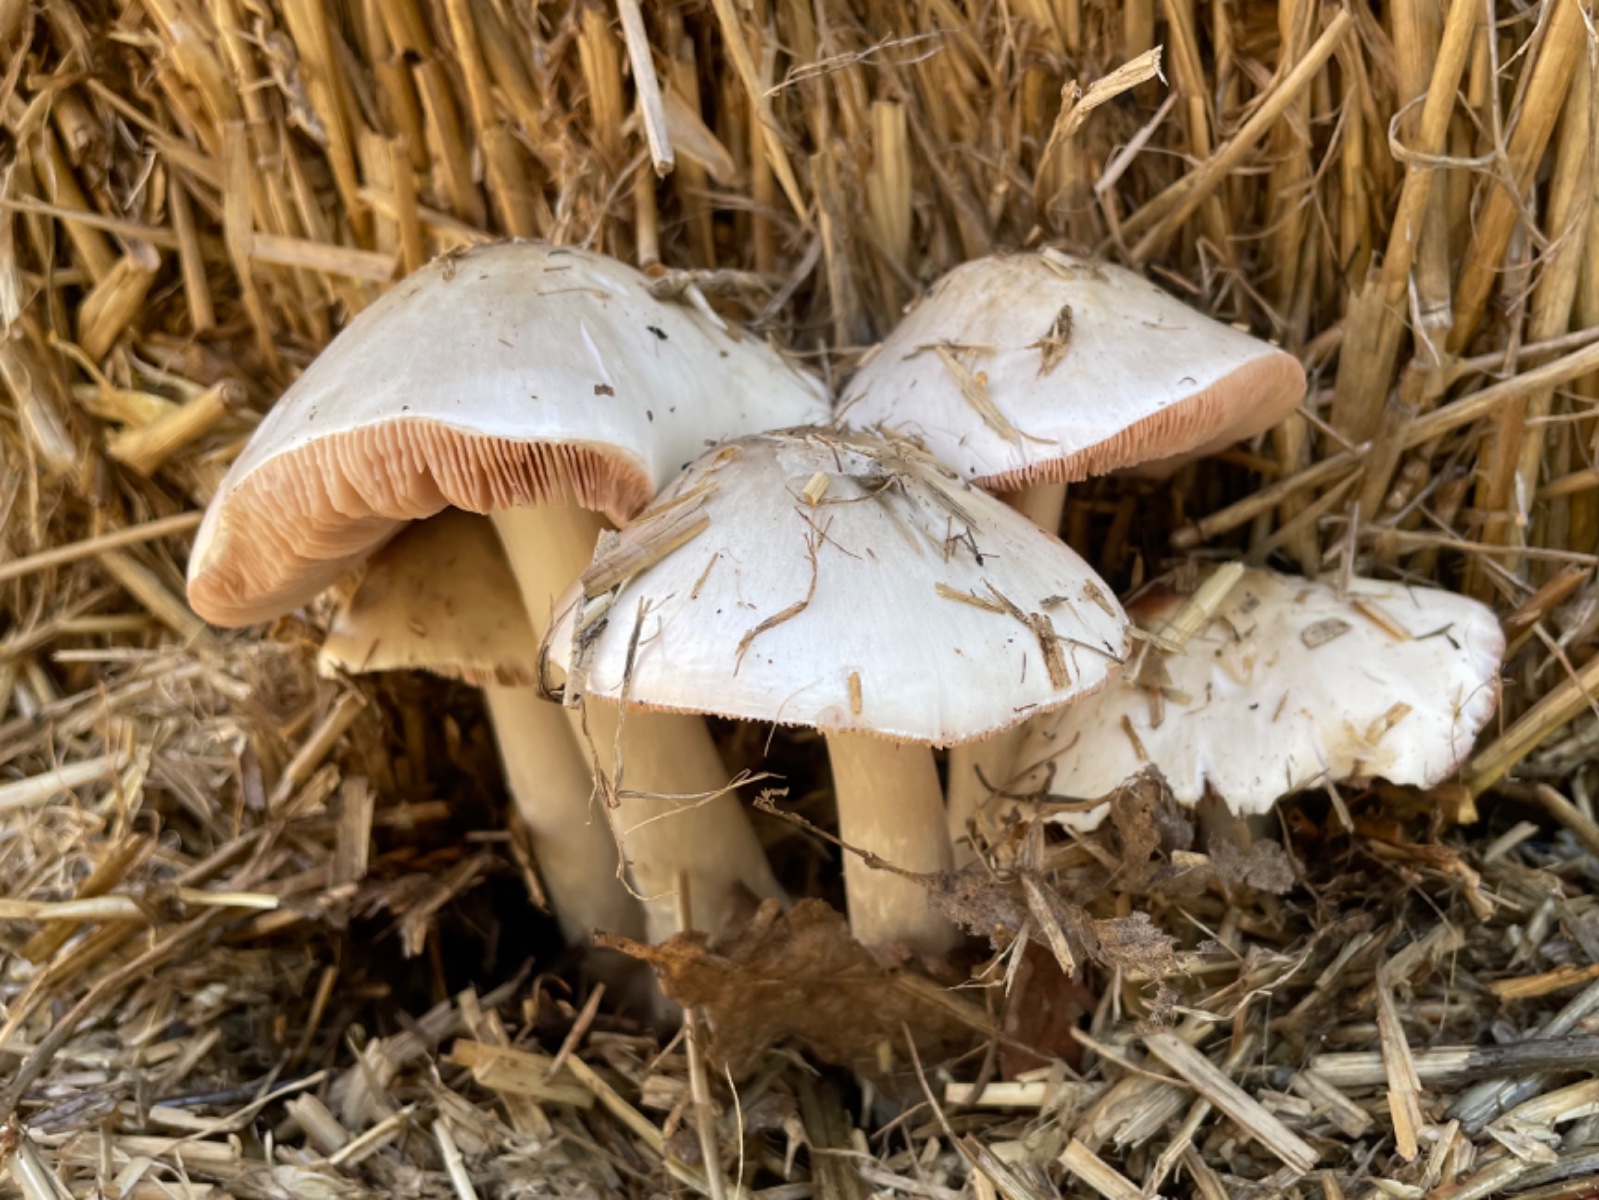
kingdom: Fungi
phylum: Basidiomycota
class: Agaricomycetes
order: Agaricales
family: Pluteaceae
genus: Volvopluteus
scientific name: Volvopluteus gloiocephalus
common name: høj posesvamp
